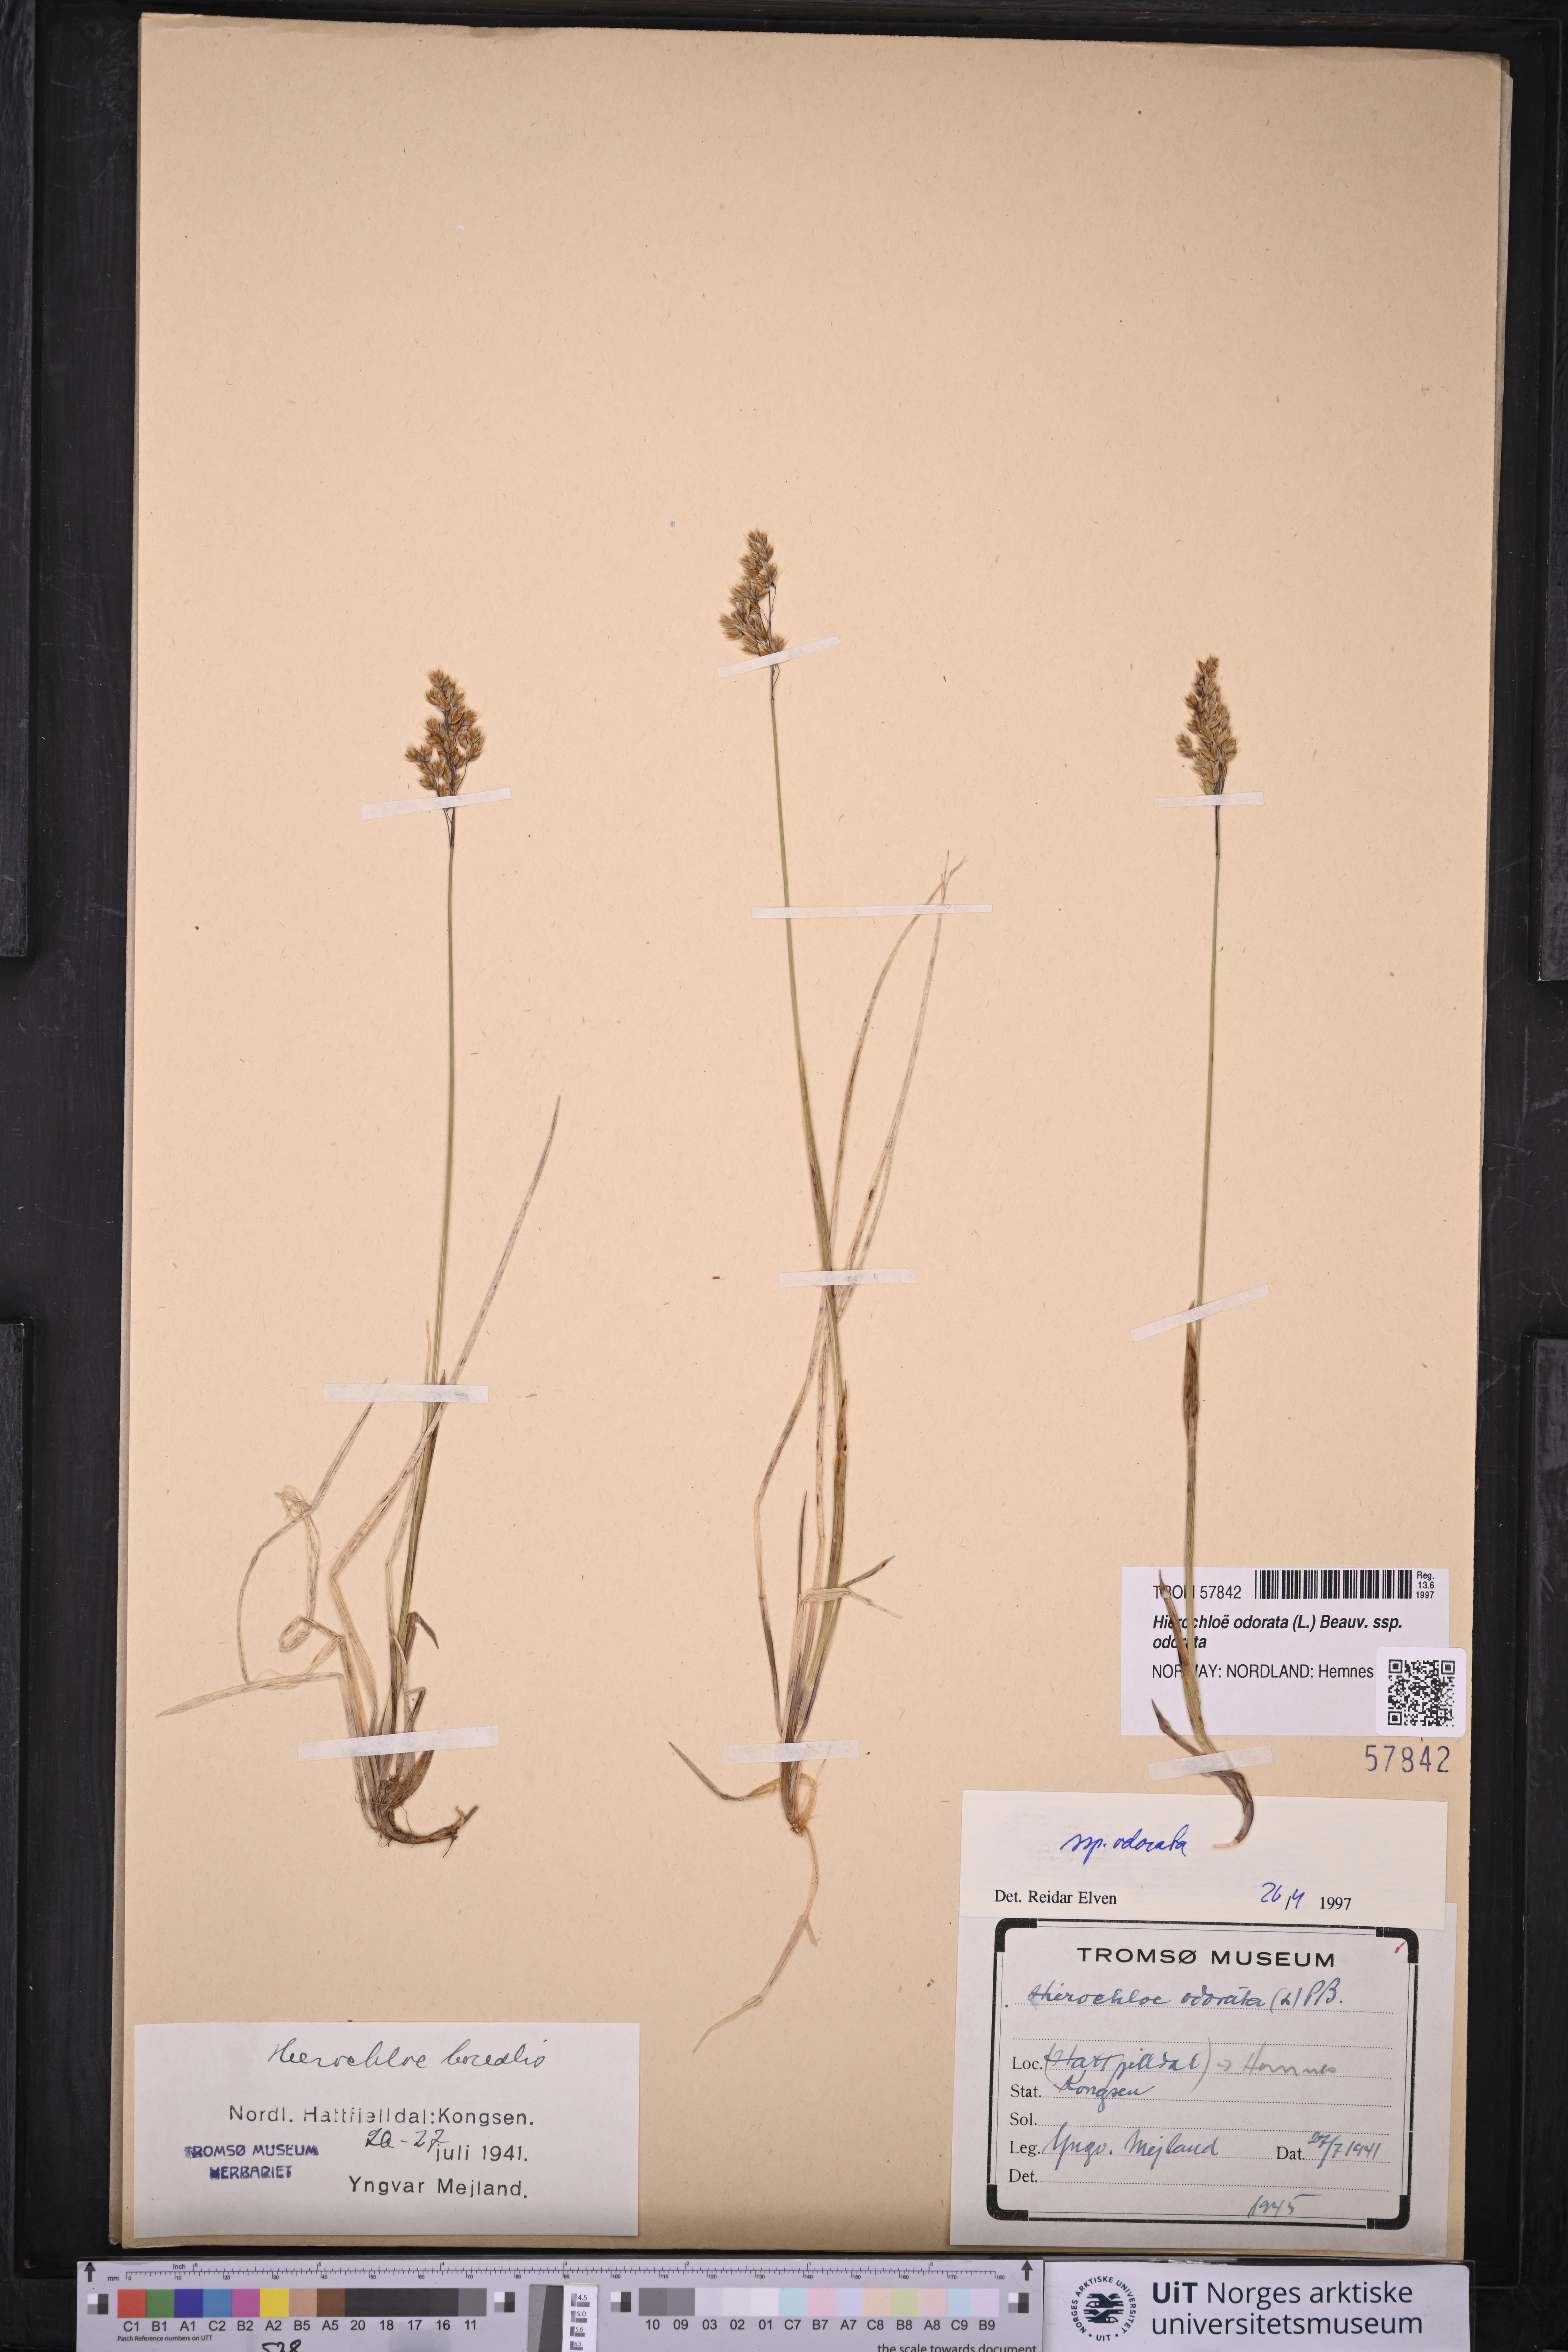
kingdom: Plantae
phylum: Tracheophyta
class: Liliopsida
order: Poales
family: Poaceae
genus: Anthoxanthum
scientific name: Anthoxanthum nitens
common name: Holy grass
